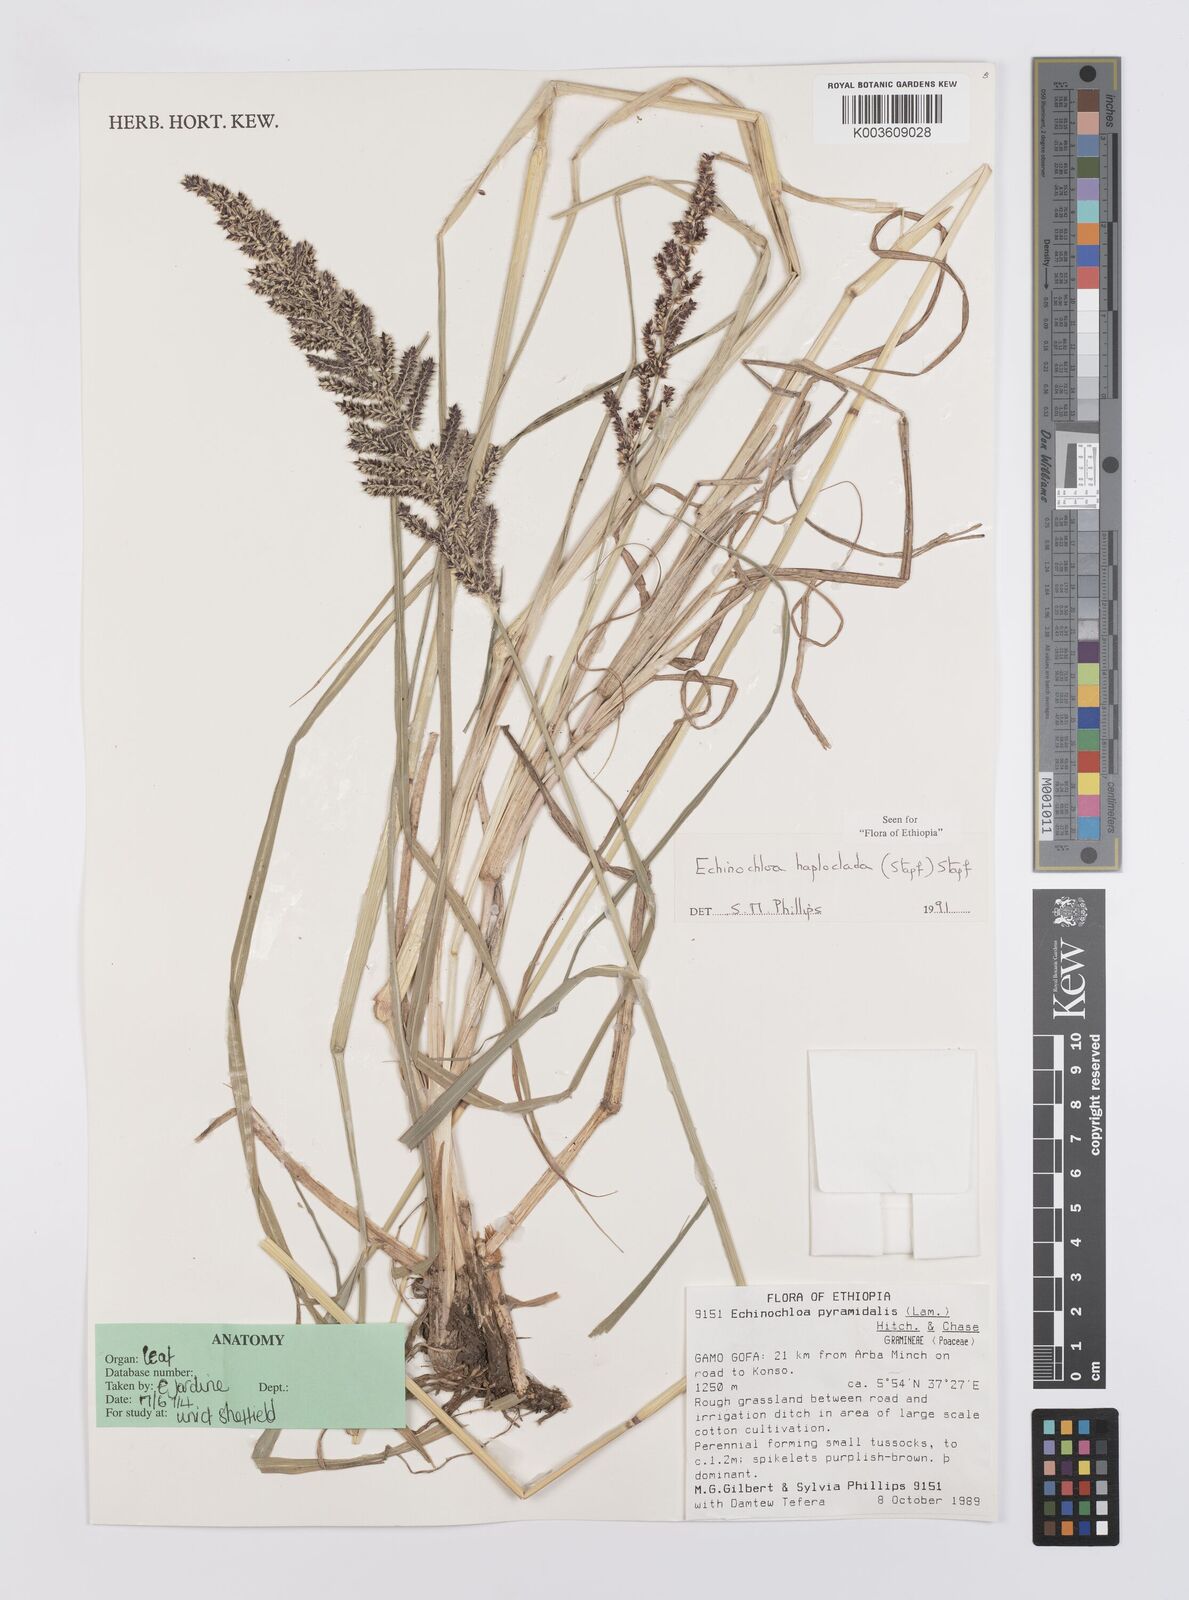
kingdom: Plantae
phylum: Tracheophyta
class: Liliopsida
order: Poales
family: Poaceae
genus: Echinochloa
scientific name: Echinochloa haploclada
